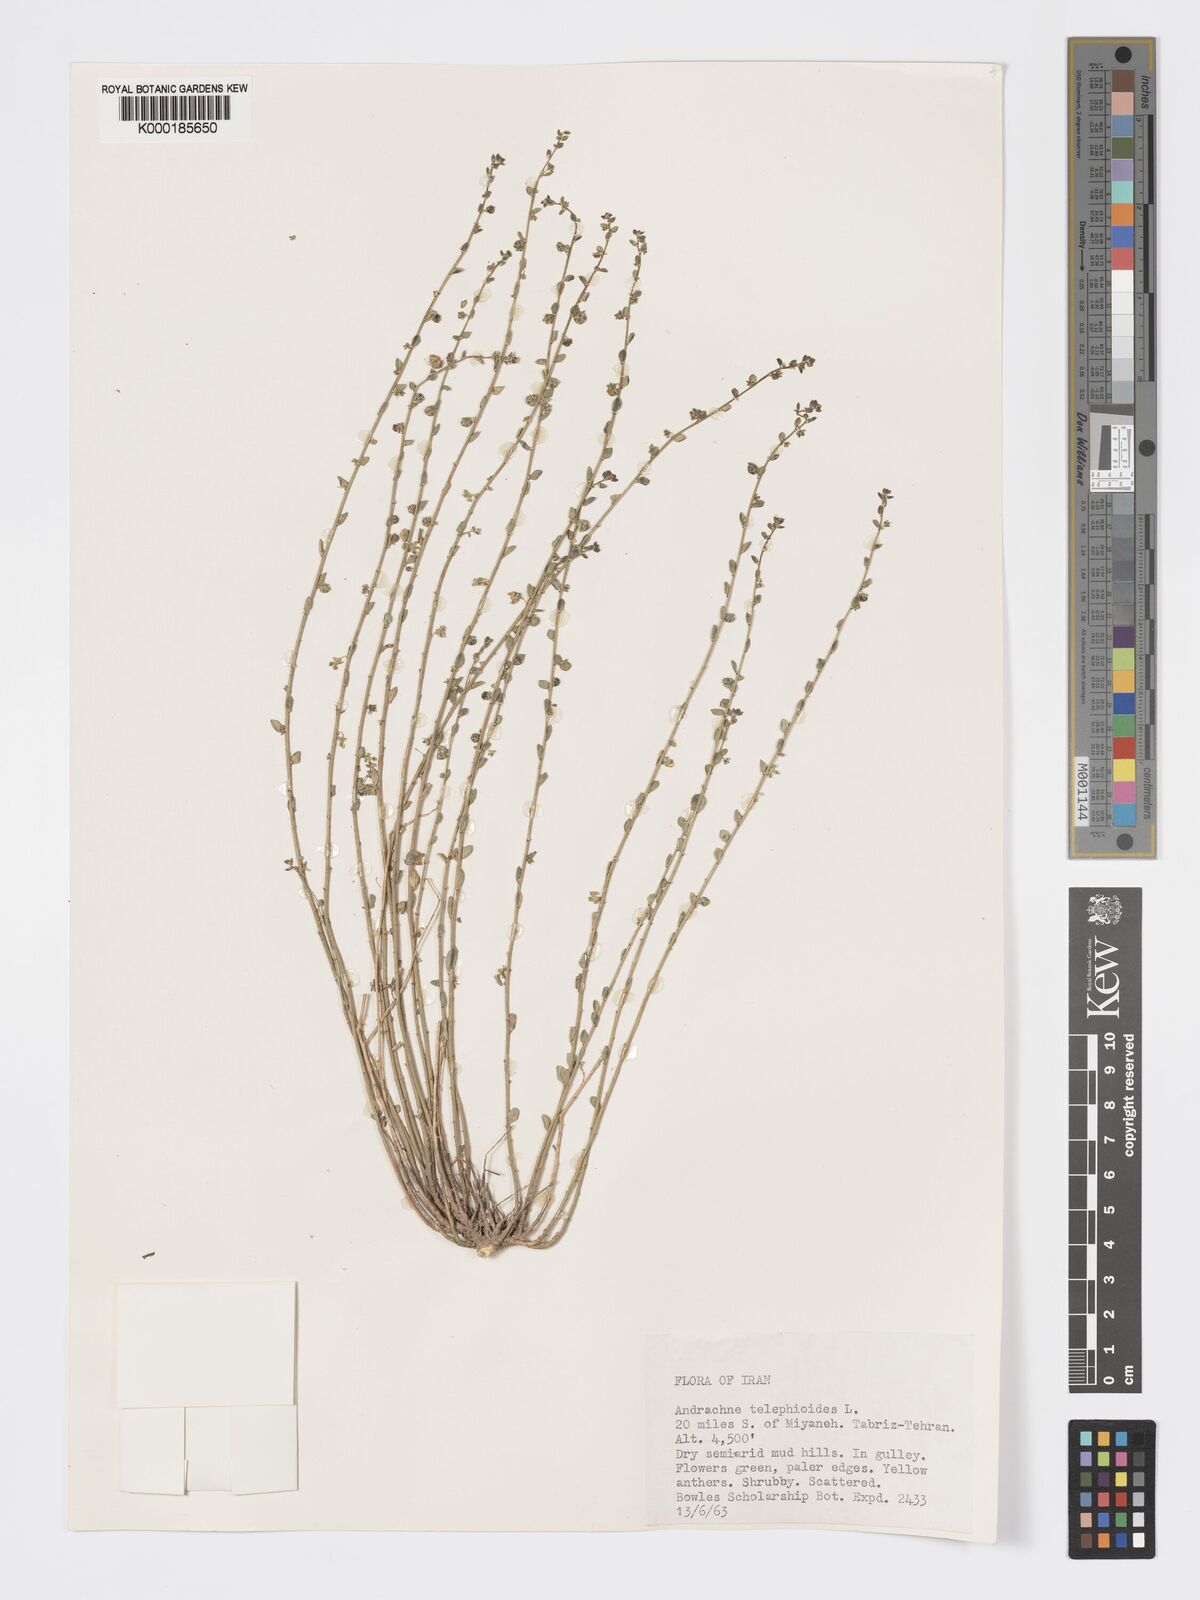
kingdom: Plantae
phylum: Tracheophyta
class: Magnoliopsida
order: Malpighiales
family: Phyllanthaceae
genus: Andrachne
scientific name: Andrachne telephioides
